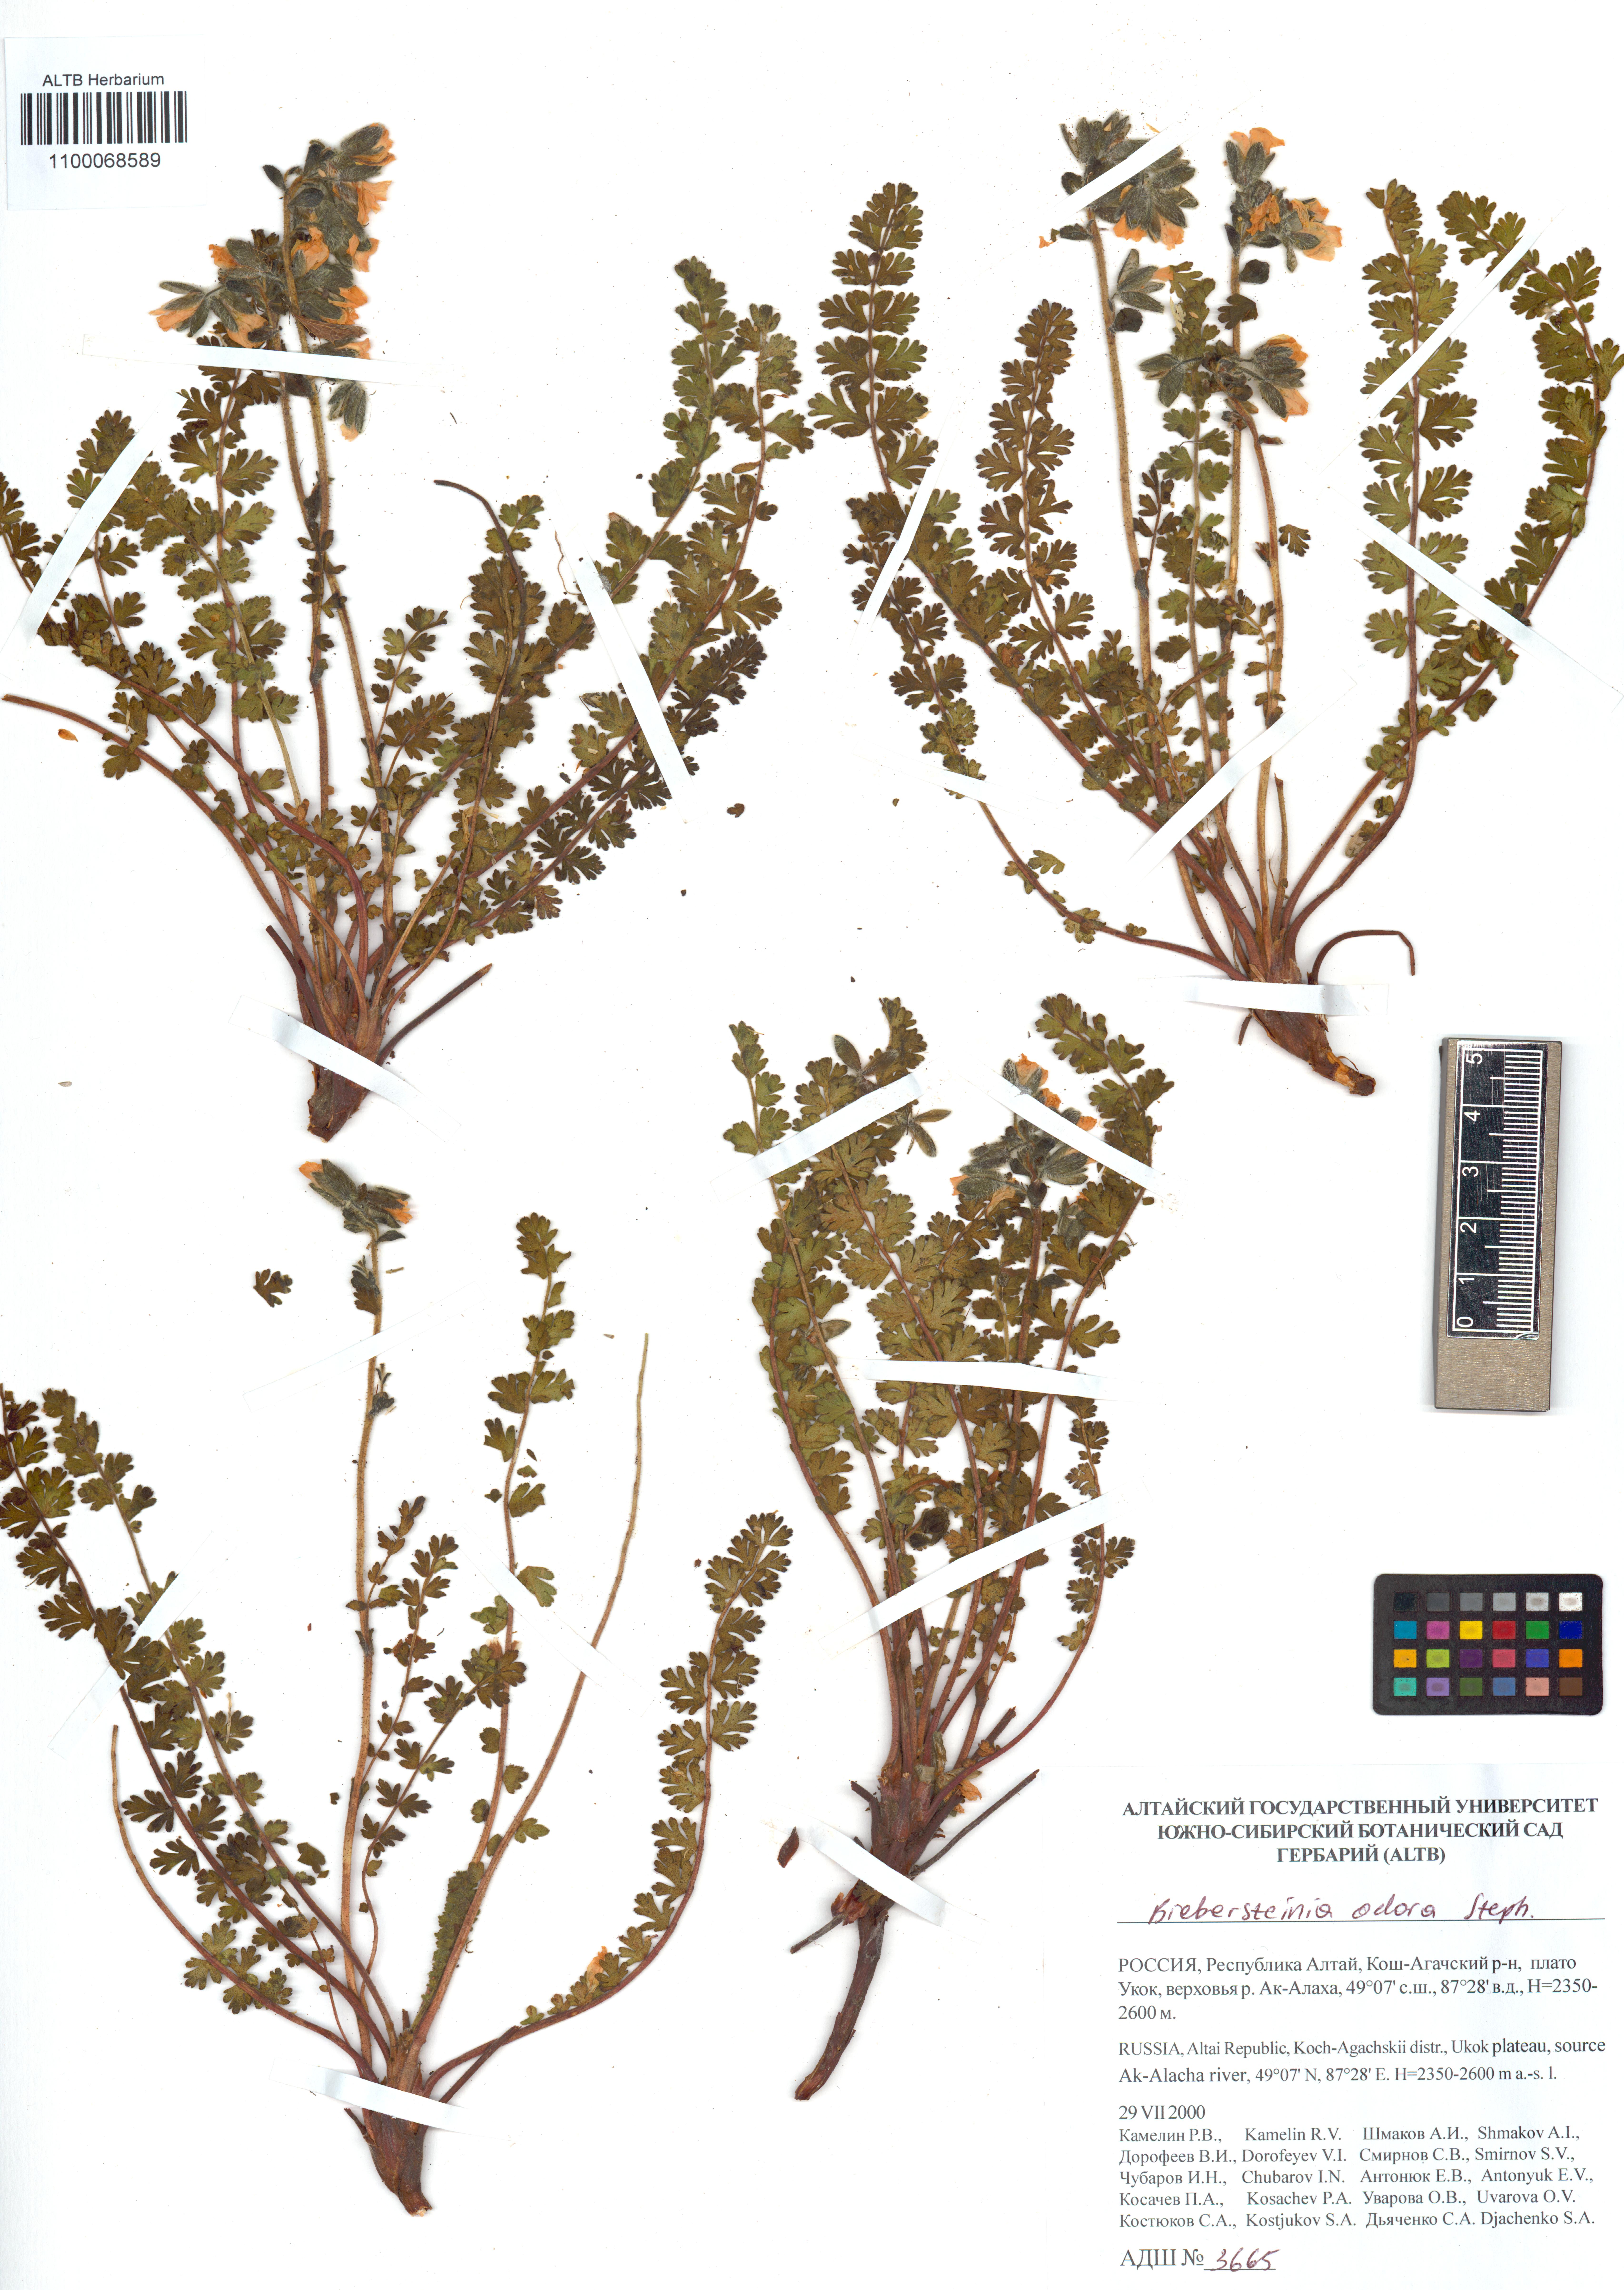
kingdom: Plantae
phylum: Tracheophyta
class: Magnoliopsida
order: Sapindales
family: Biebersteiniaceae
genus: Biebersteinia
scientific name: Biebersteinia odora
